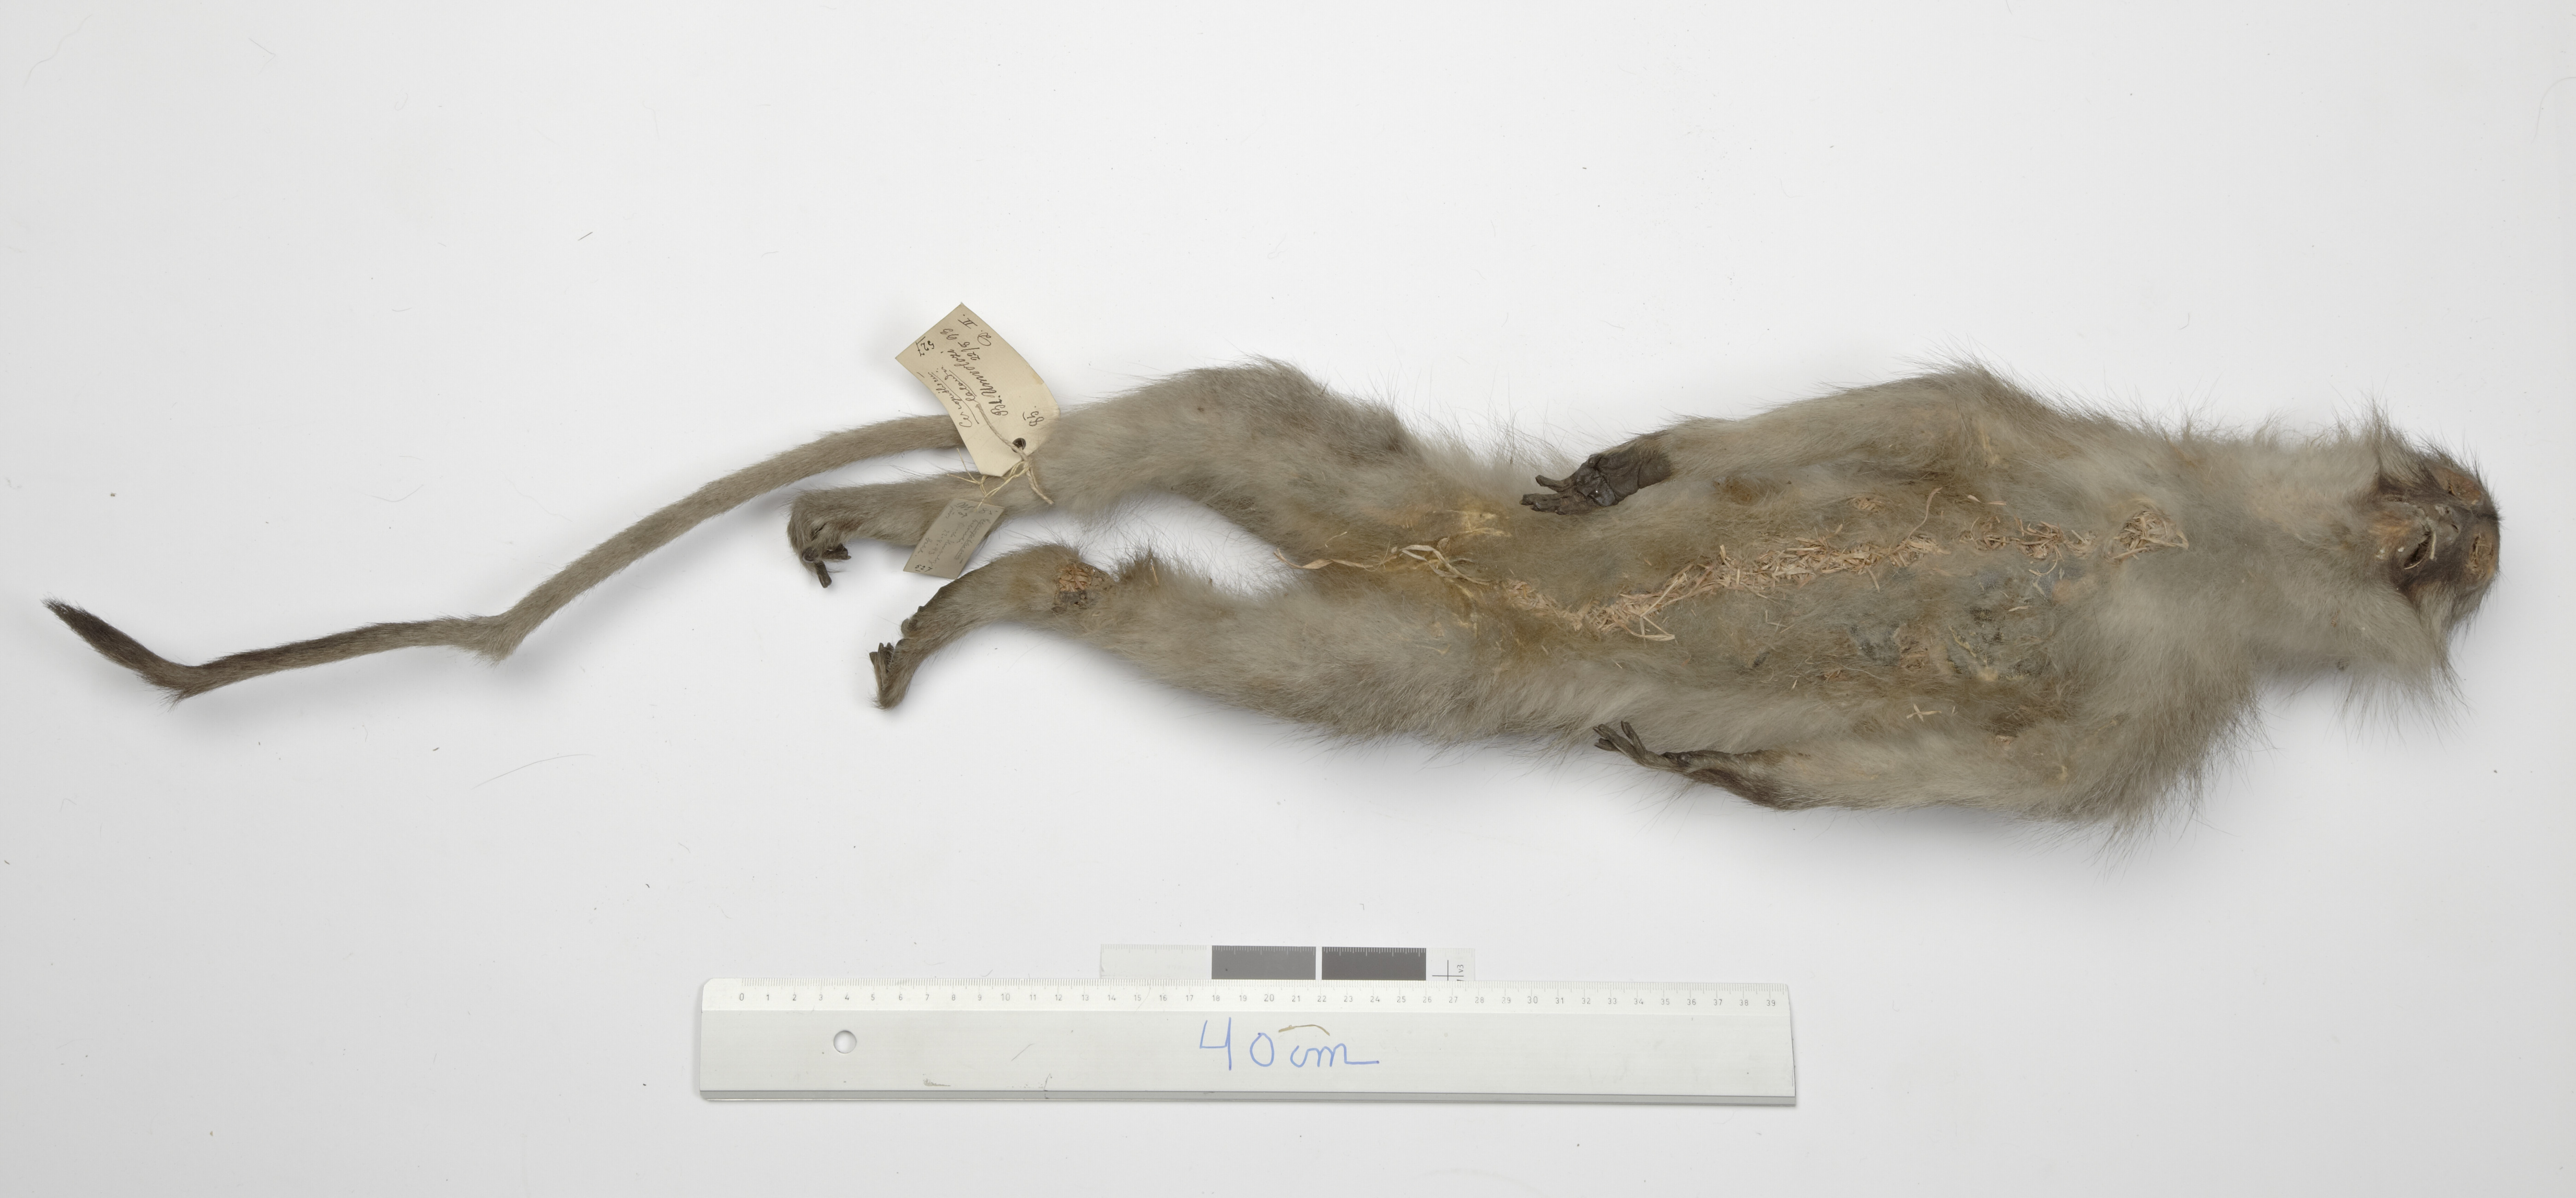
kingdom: Animalia
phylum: Chordata
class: Mammalia
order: Primates
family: Cercopithecidae
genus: Chlorocebus
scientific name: Chlorocebus aethiops
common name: Grivet
